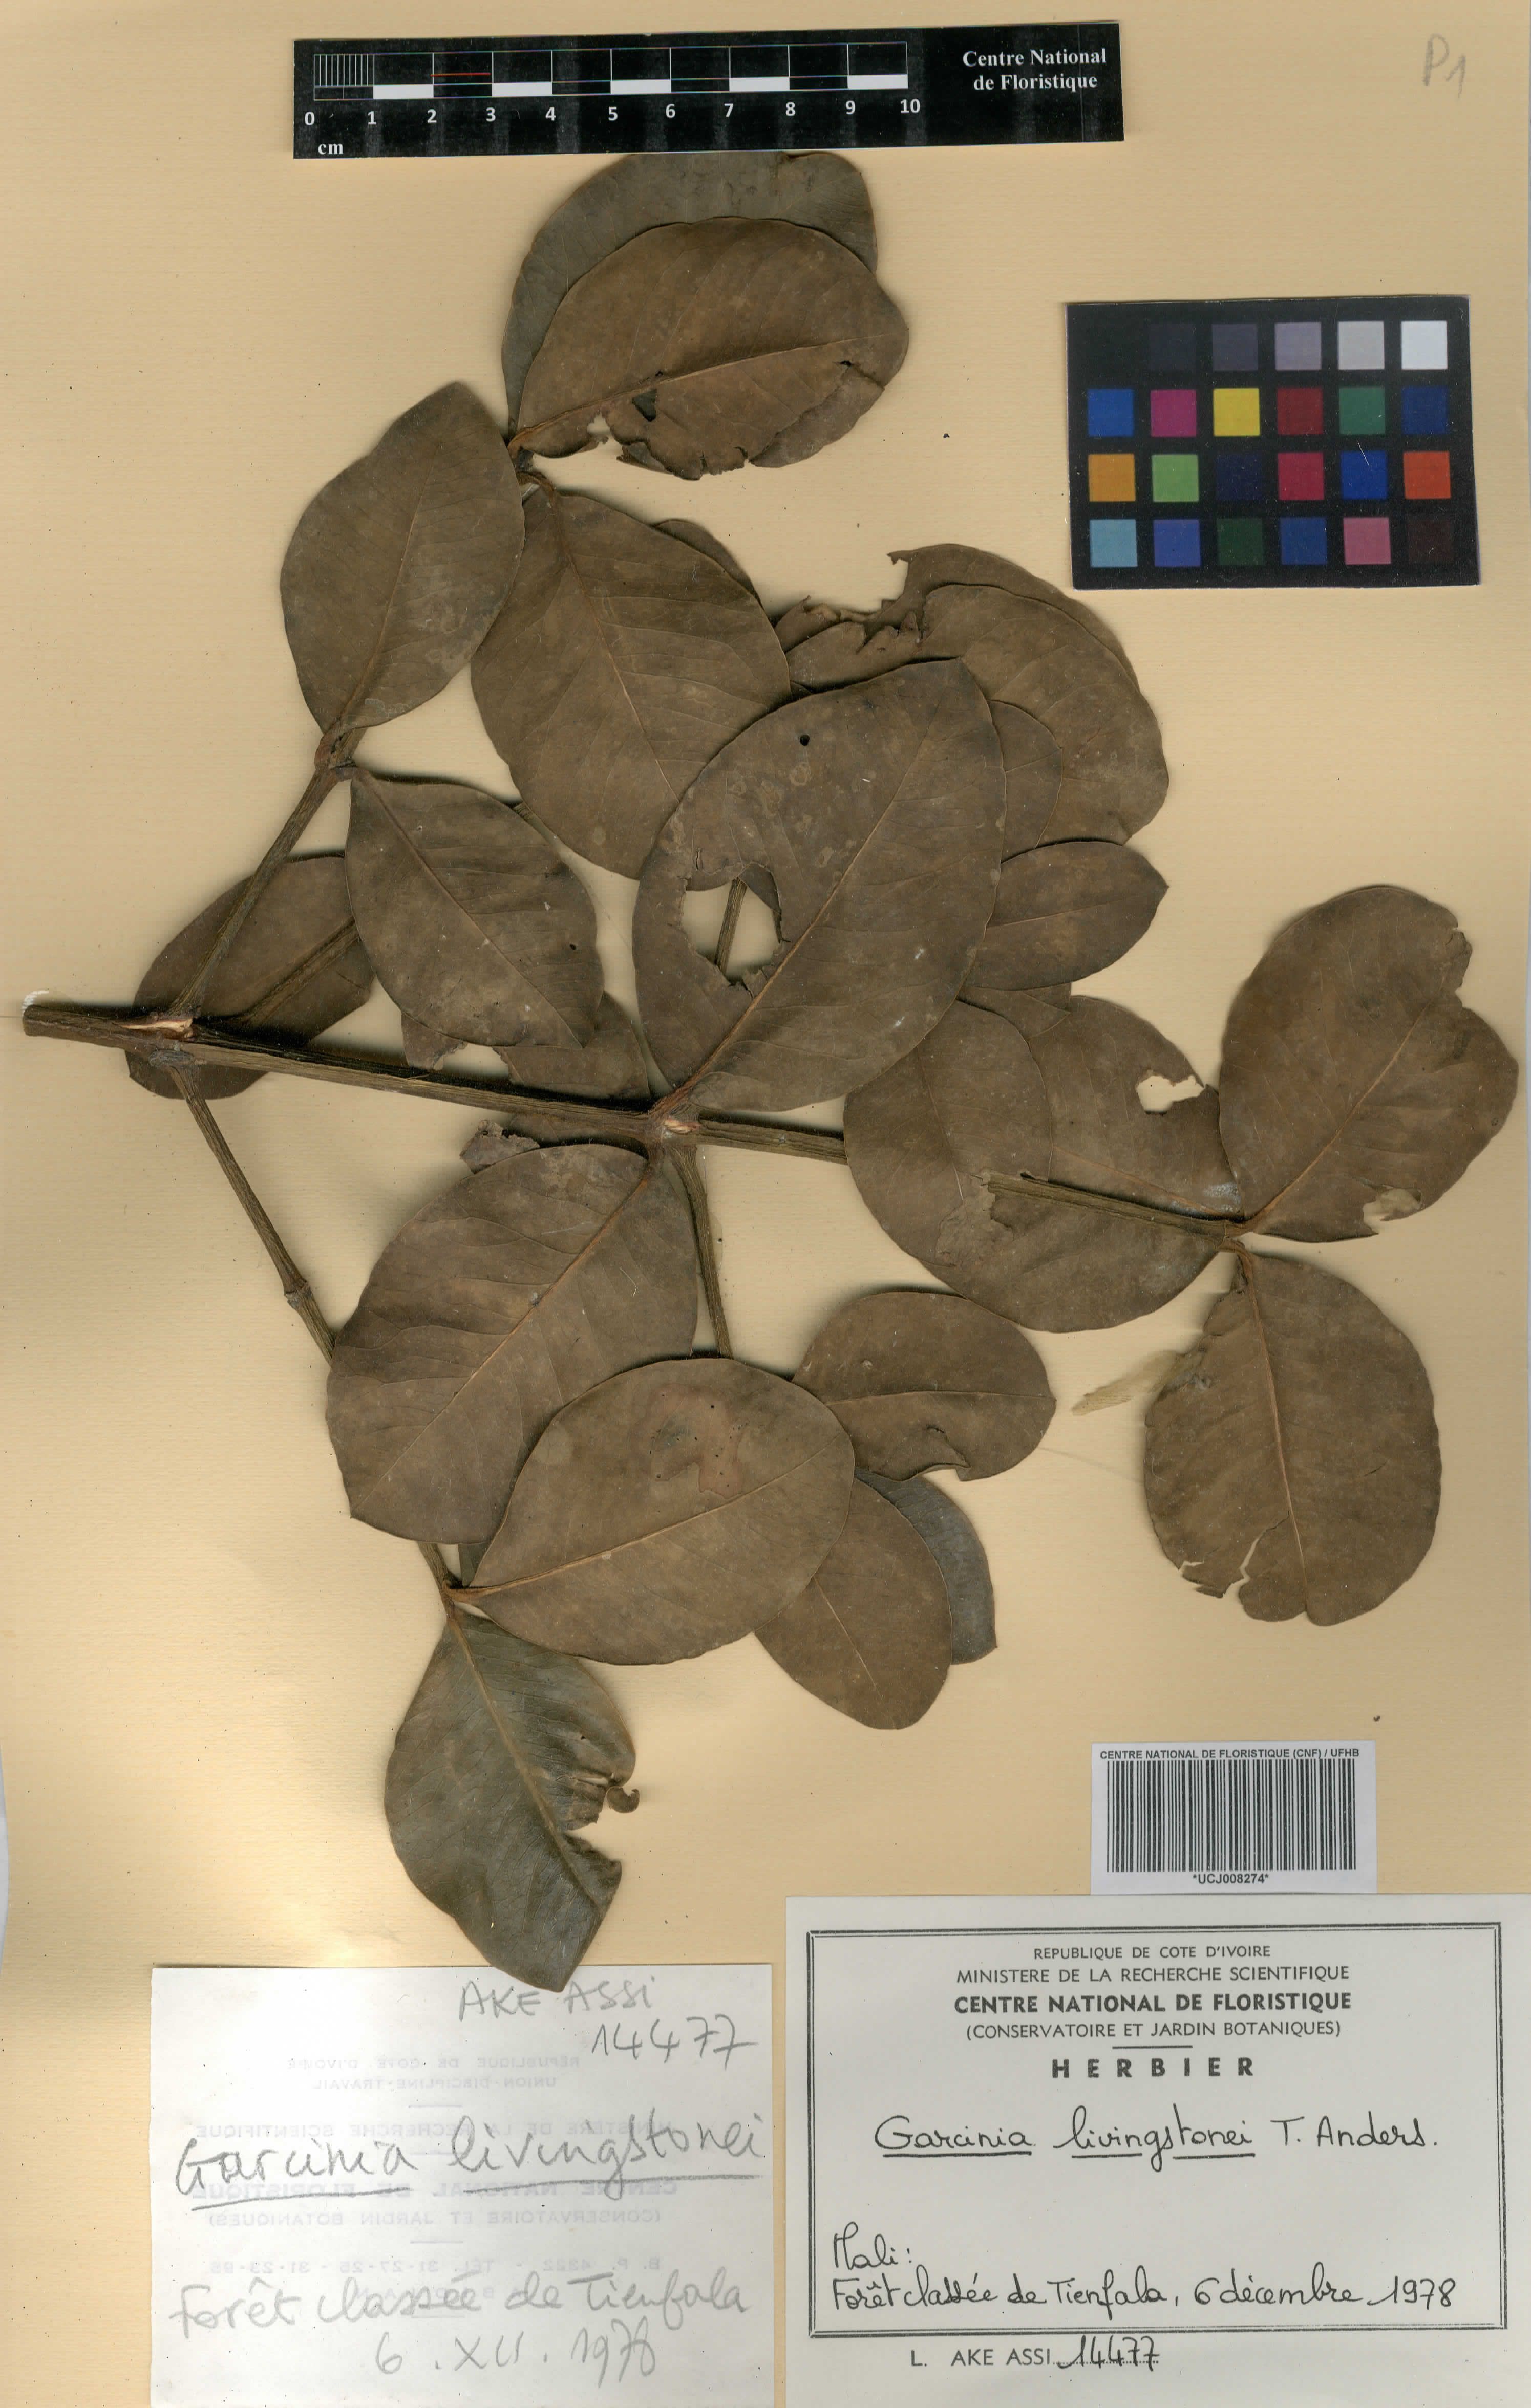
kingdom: Plantae
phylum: Tracheophyta
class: Magnoliopsida
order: Malpighiales
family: Clusiaceae
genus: Garcinia
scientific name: Garcinia livingstonei
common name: African mangosteen
